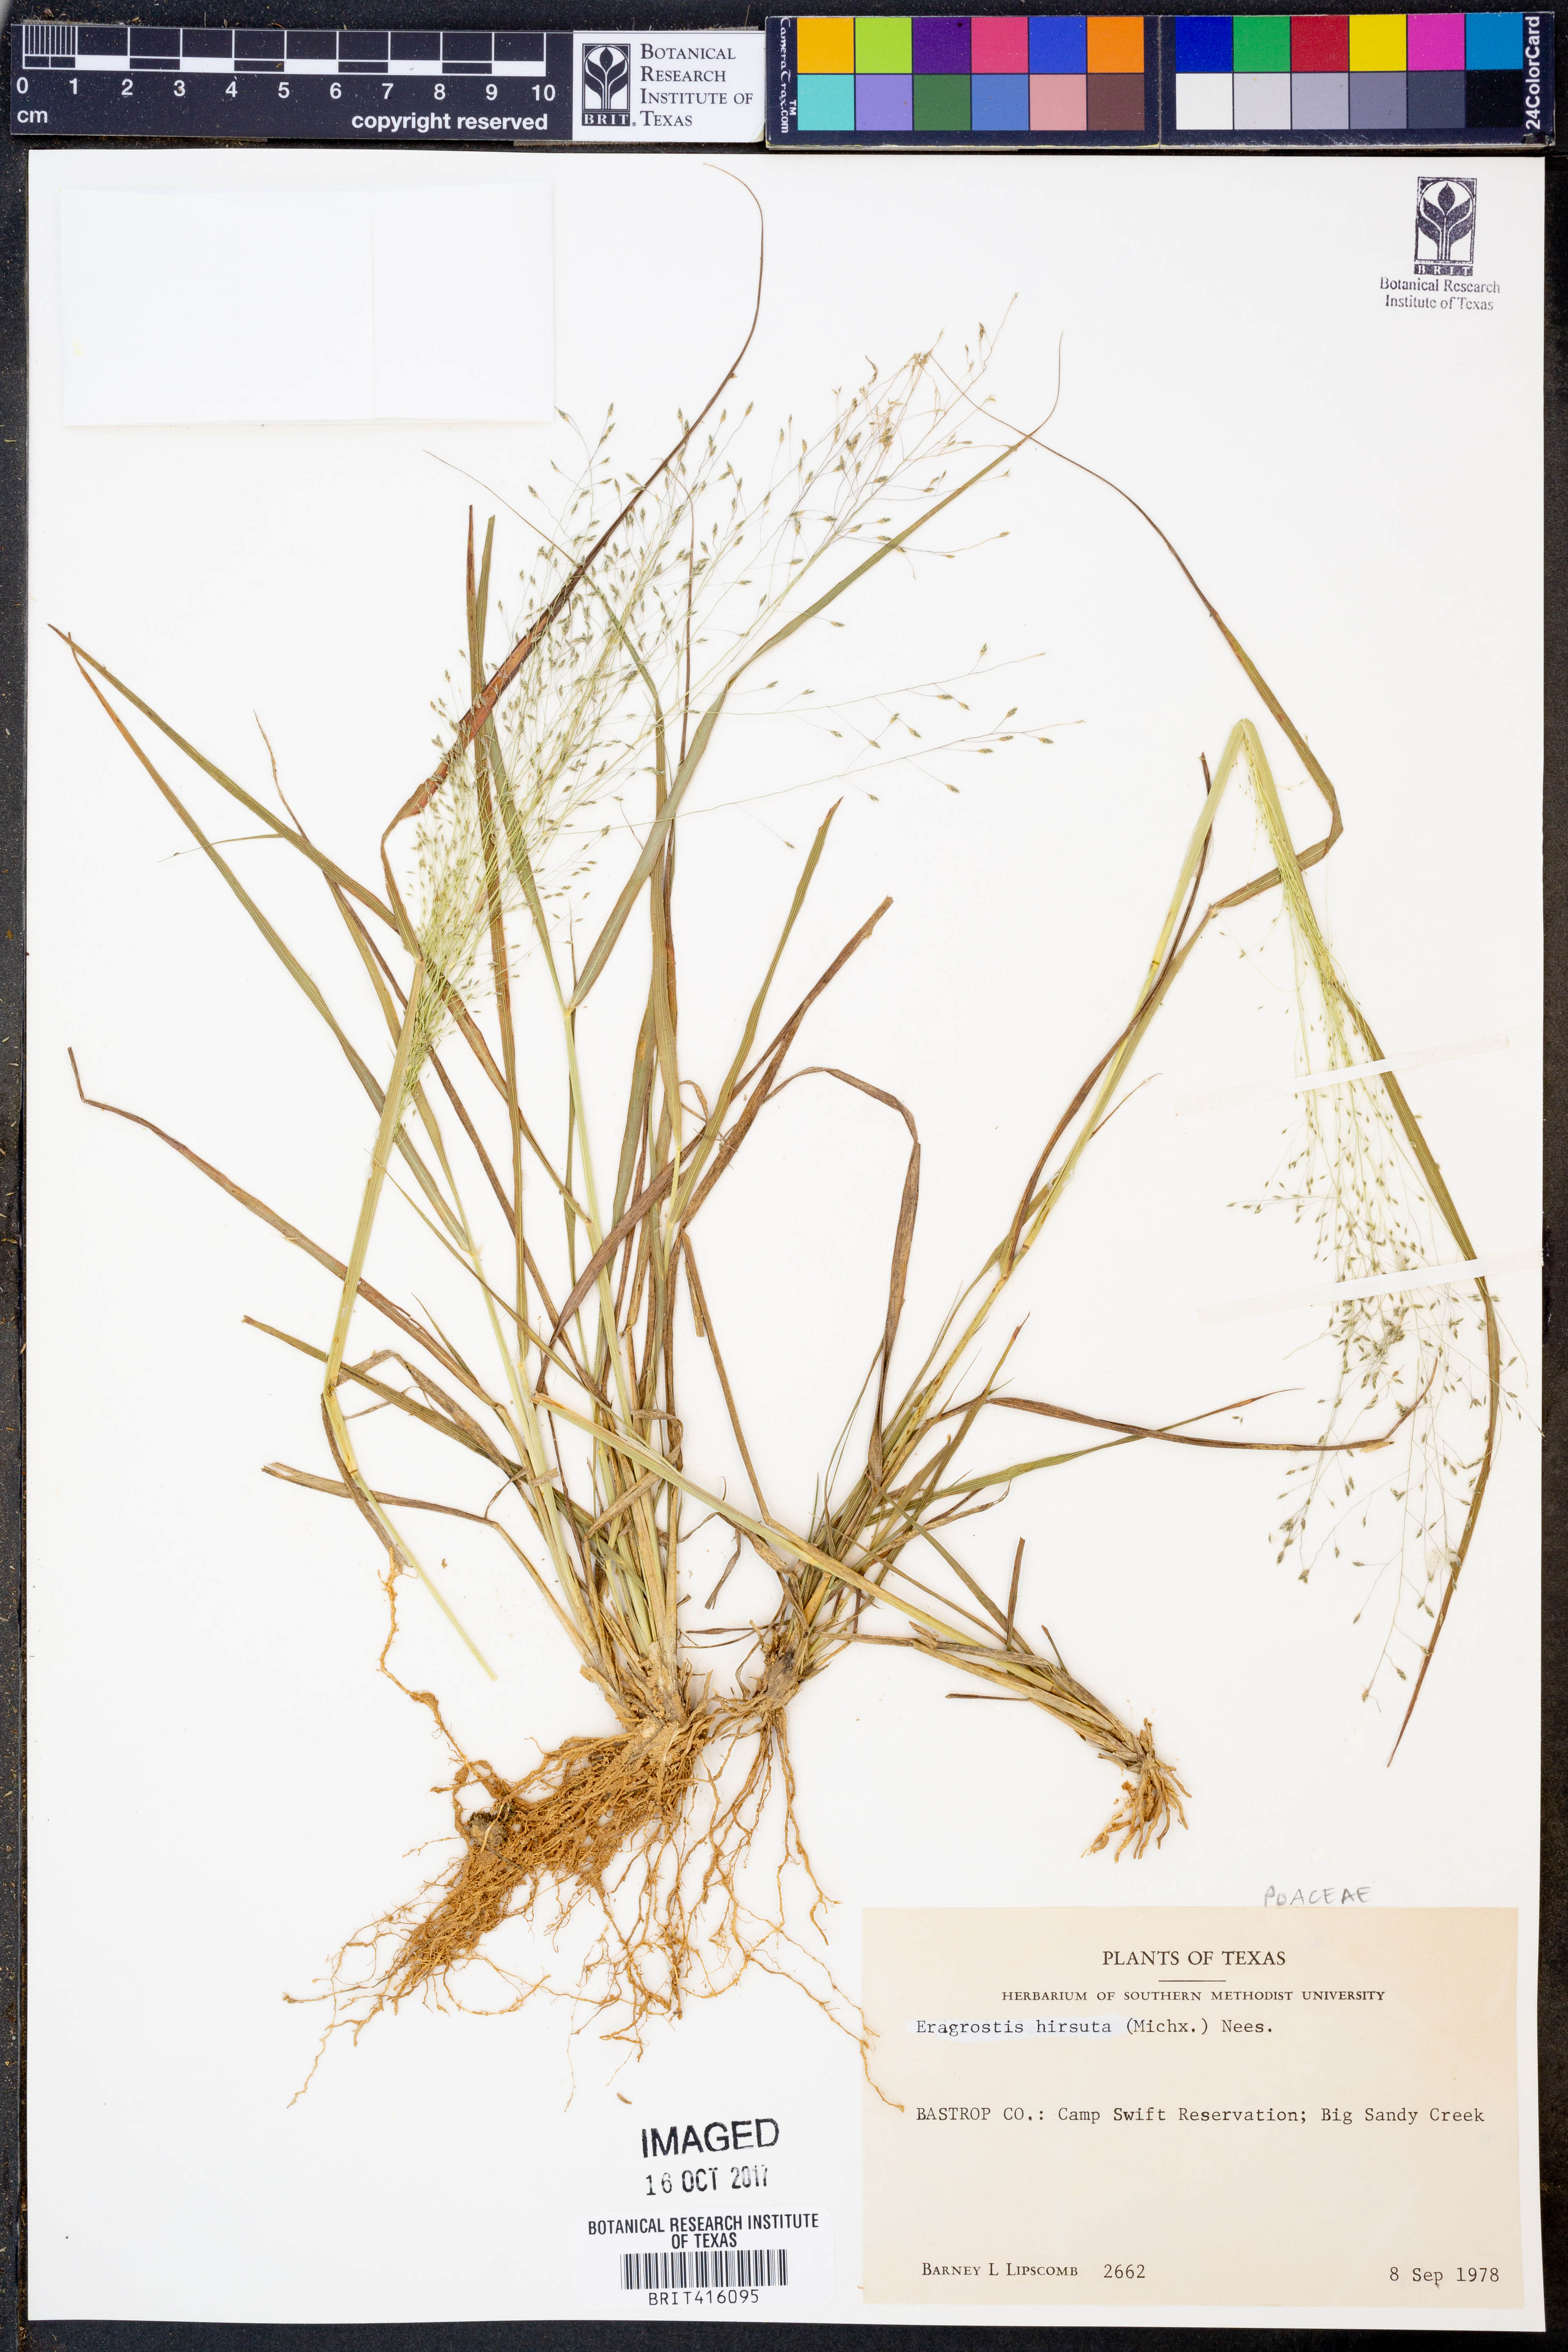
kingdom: Plantae
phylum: Tracheophyta
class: Liliopsida
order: Poales
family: Poaceae
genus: Eragrostis
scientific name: Eragrostis hirsuta
